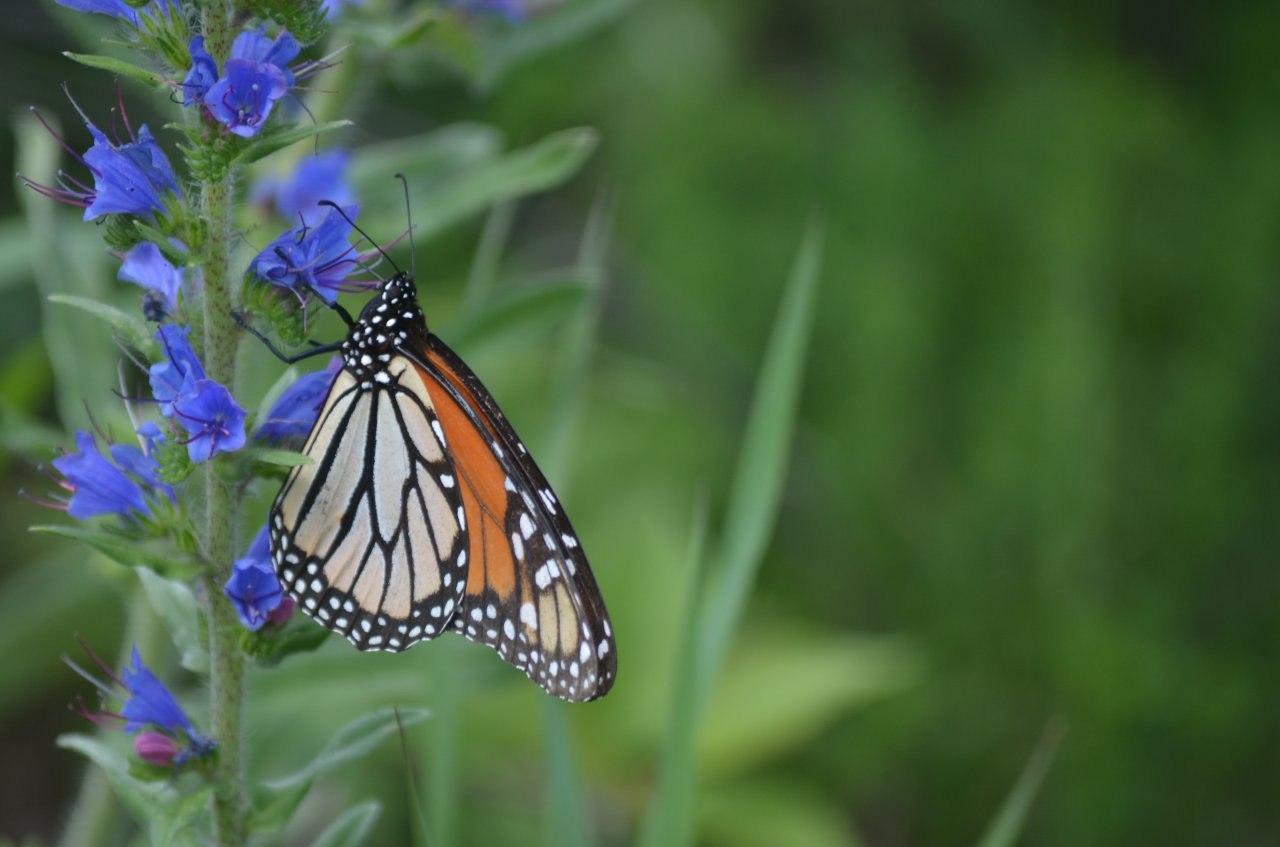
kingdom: Animalia
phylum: Arthropoda
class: Insecta
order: Lepidoptera
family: Nymphalidae
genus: Danaus
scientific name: Danaus plexippus
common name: Monarch
